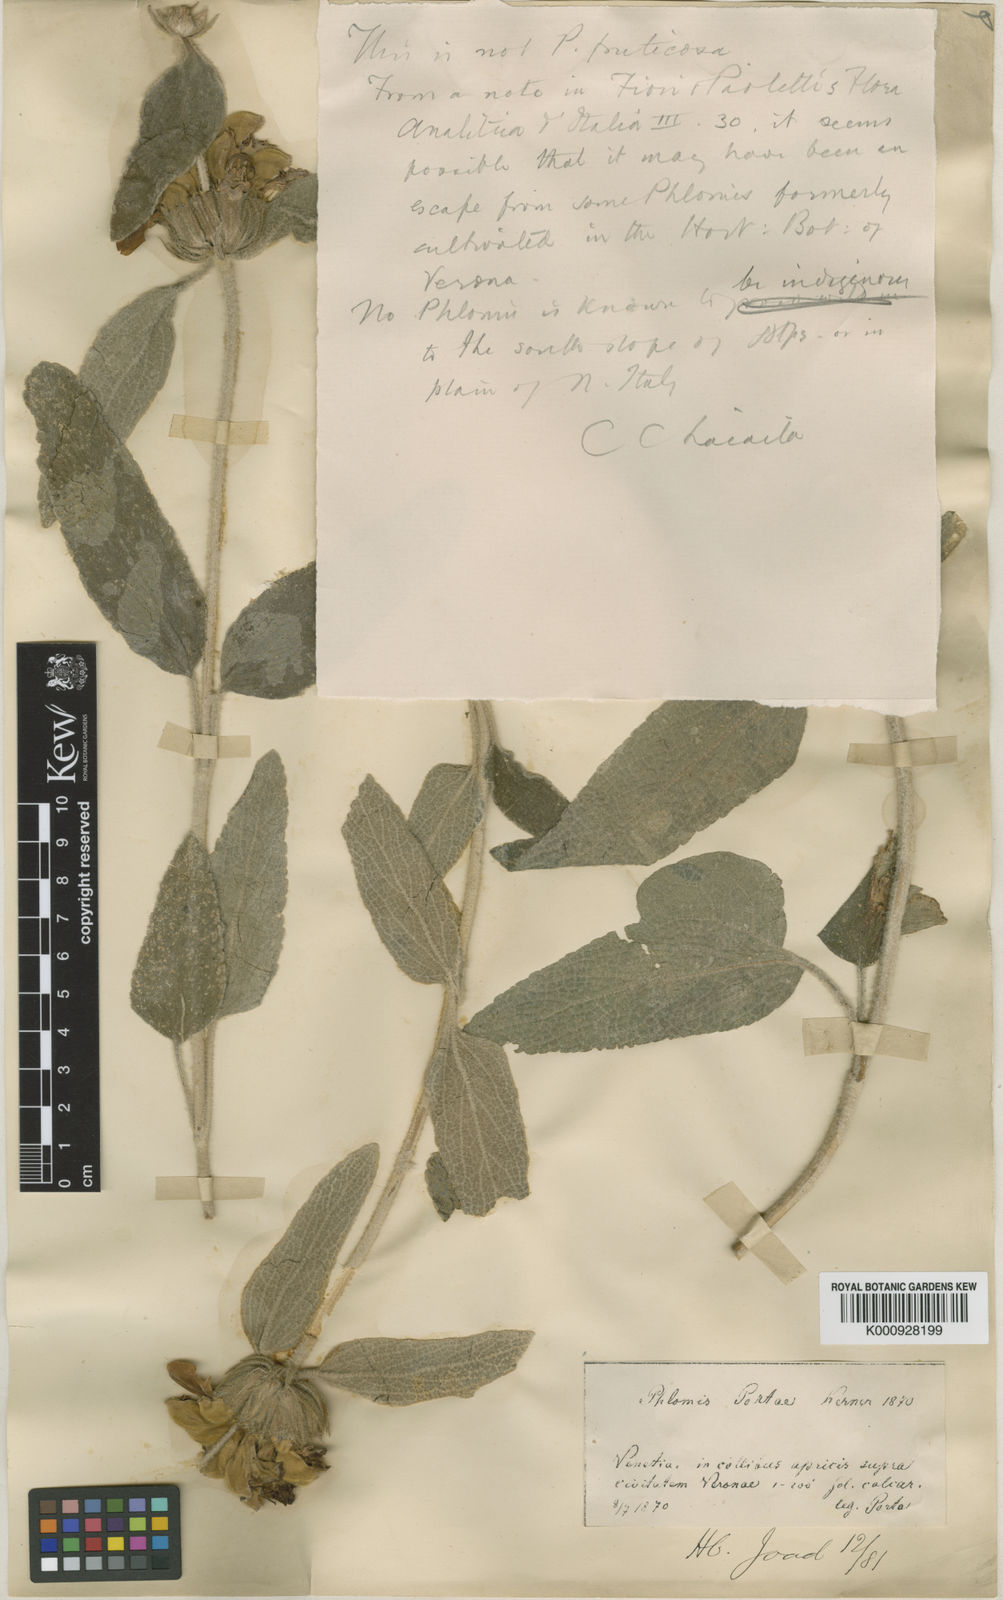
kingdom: Plantae
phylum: Tracheophyta
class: Magnoliopsida
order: Lamiales
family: Lamiaceae
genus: Phlomis
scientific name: Phlomis fruticosa
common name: Jerusalem sage
